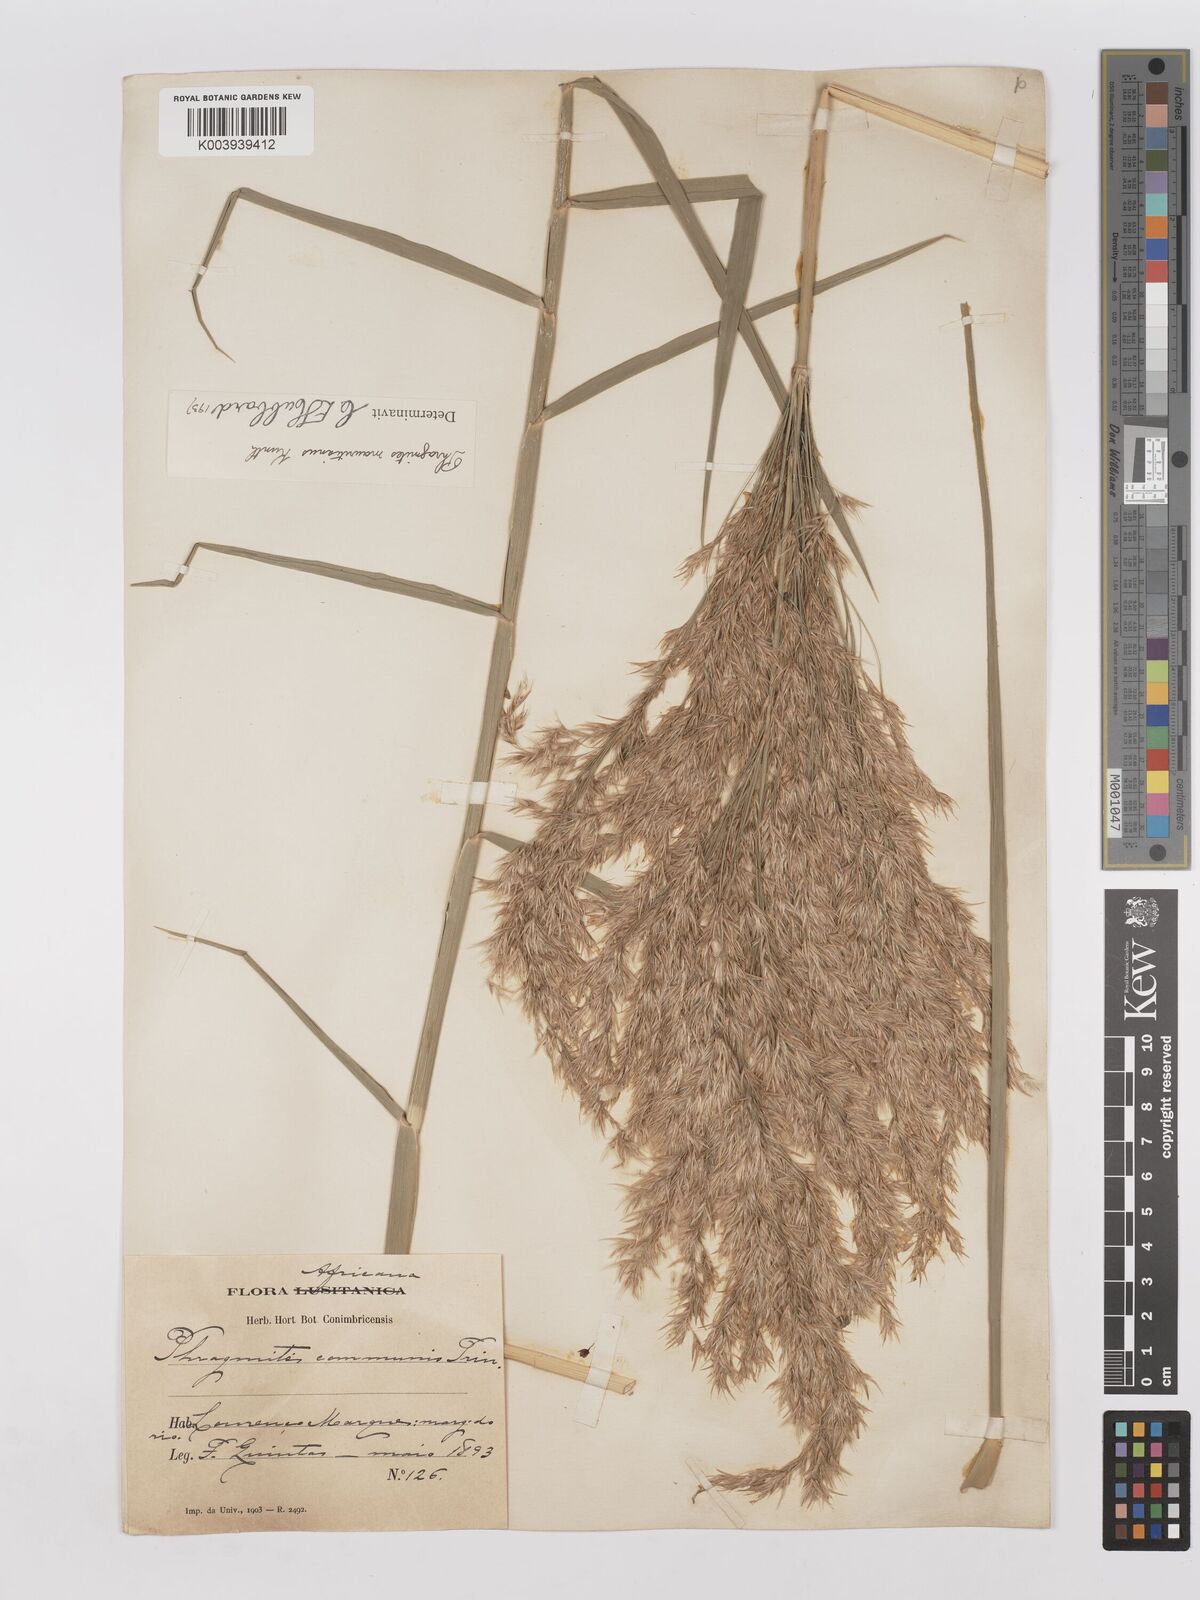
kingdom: Plantae
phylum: Tracheophyta
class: Liliopsida
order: Poales
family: Poaceae
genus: Phragmites
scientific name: Phragmites mauritianus
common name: Reed grass
